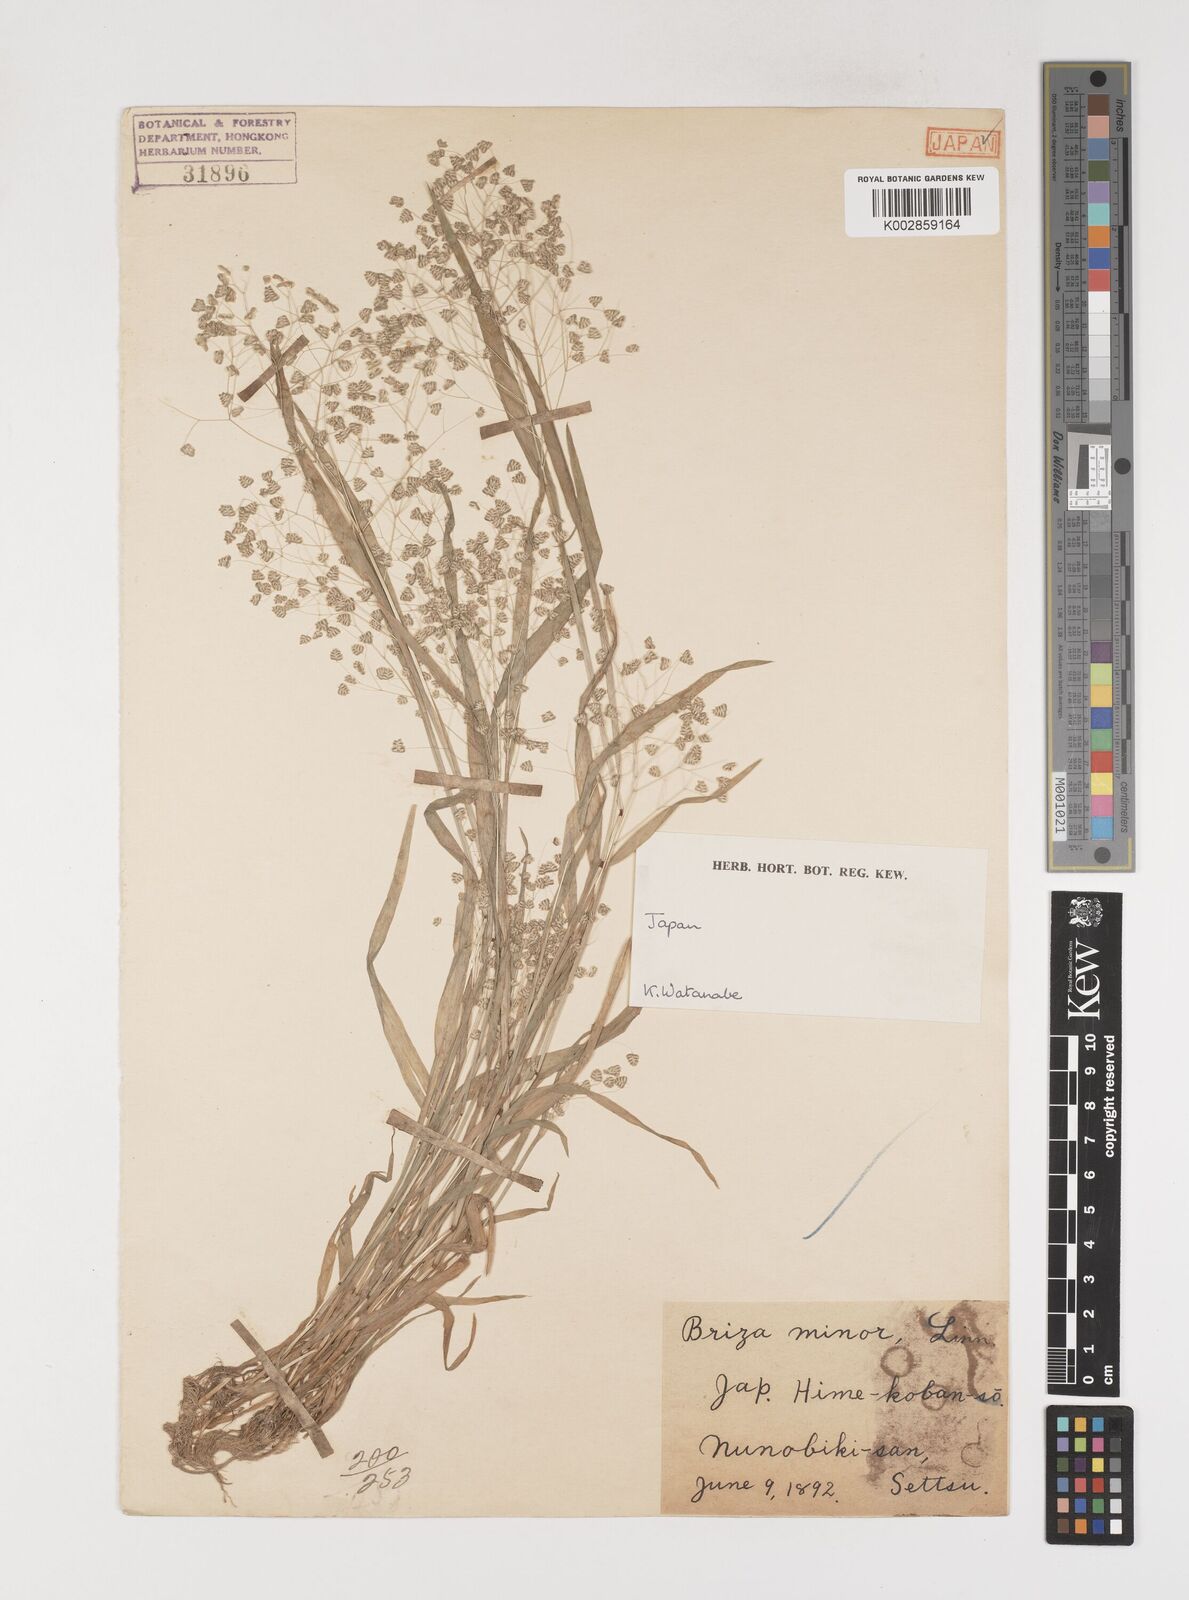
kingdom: Plantae
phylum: Tracheophyta
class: Liliopsida
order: Poales
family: Poaceae
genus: Briza
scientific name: Briza minor
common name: Lesser quaking-grass
